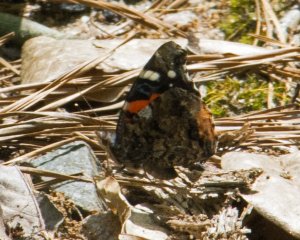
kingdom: Animalia
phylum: Arthropoda
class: Insecta
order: Lepidoptera
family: Nymphalidae
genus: Vanessa
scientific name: Vanessa atalanta
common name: Red Admiral
